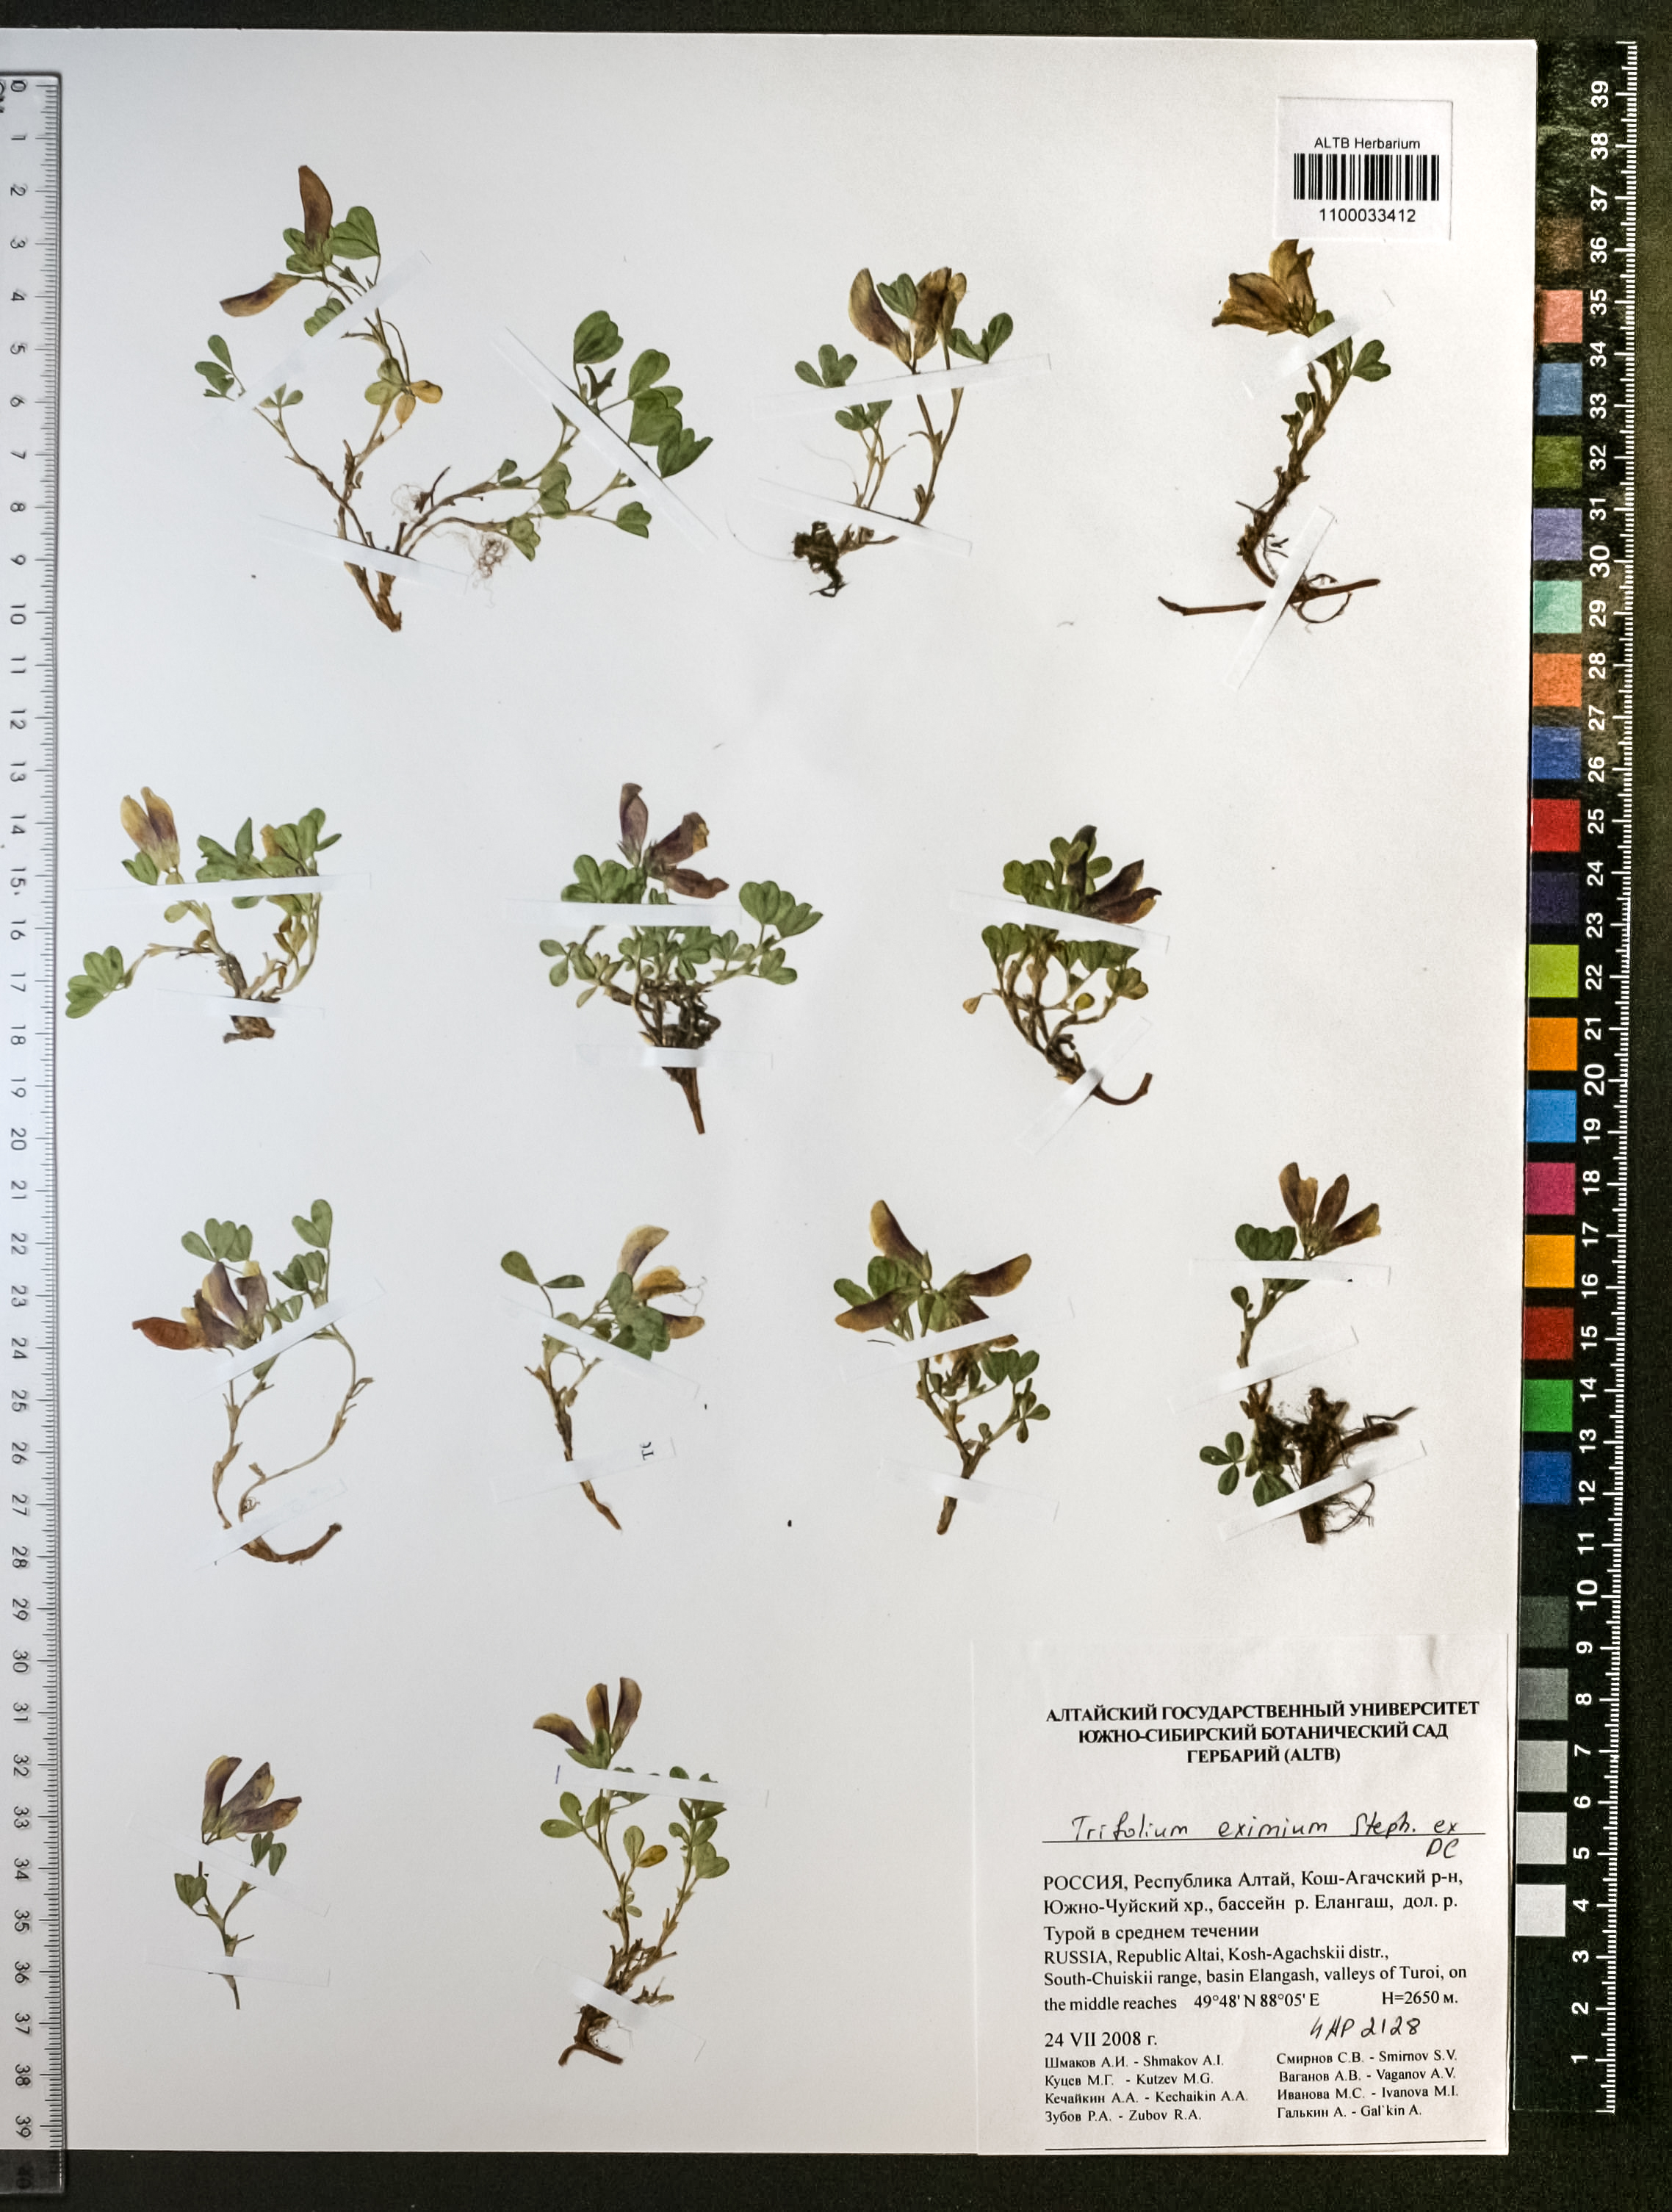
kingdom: Plantae
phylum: Tracheophyta
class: Magnoliopsida
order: Fabales
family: Fabaceae
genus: Trifolium
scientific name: Trifolium eximium
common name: Excellent clover
